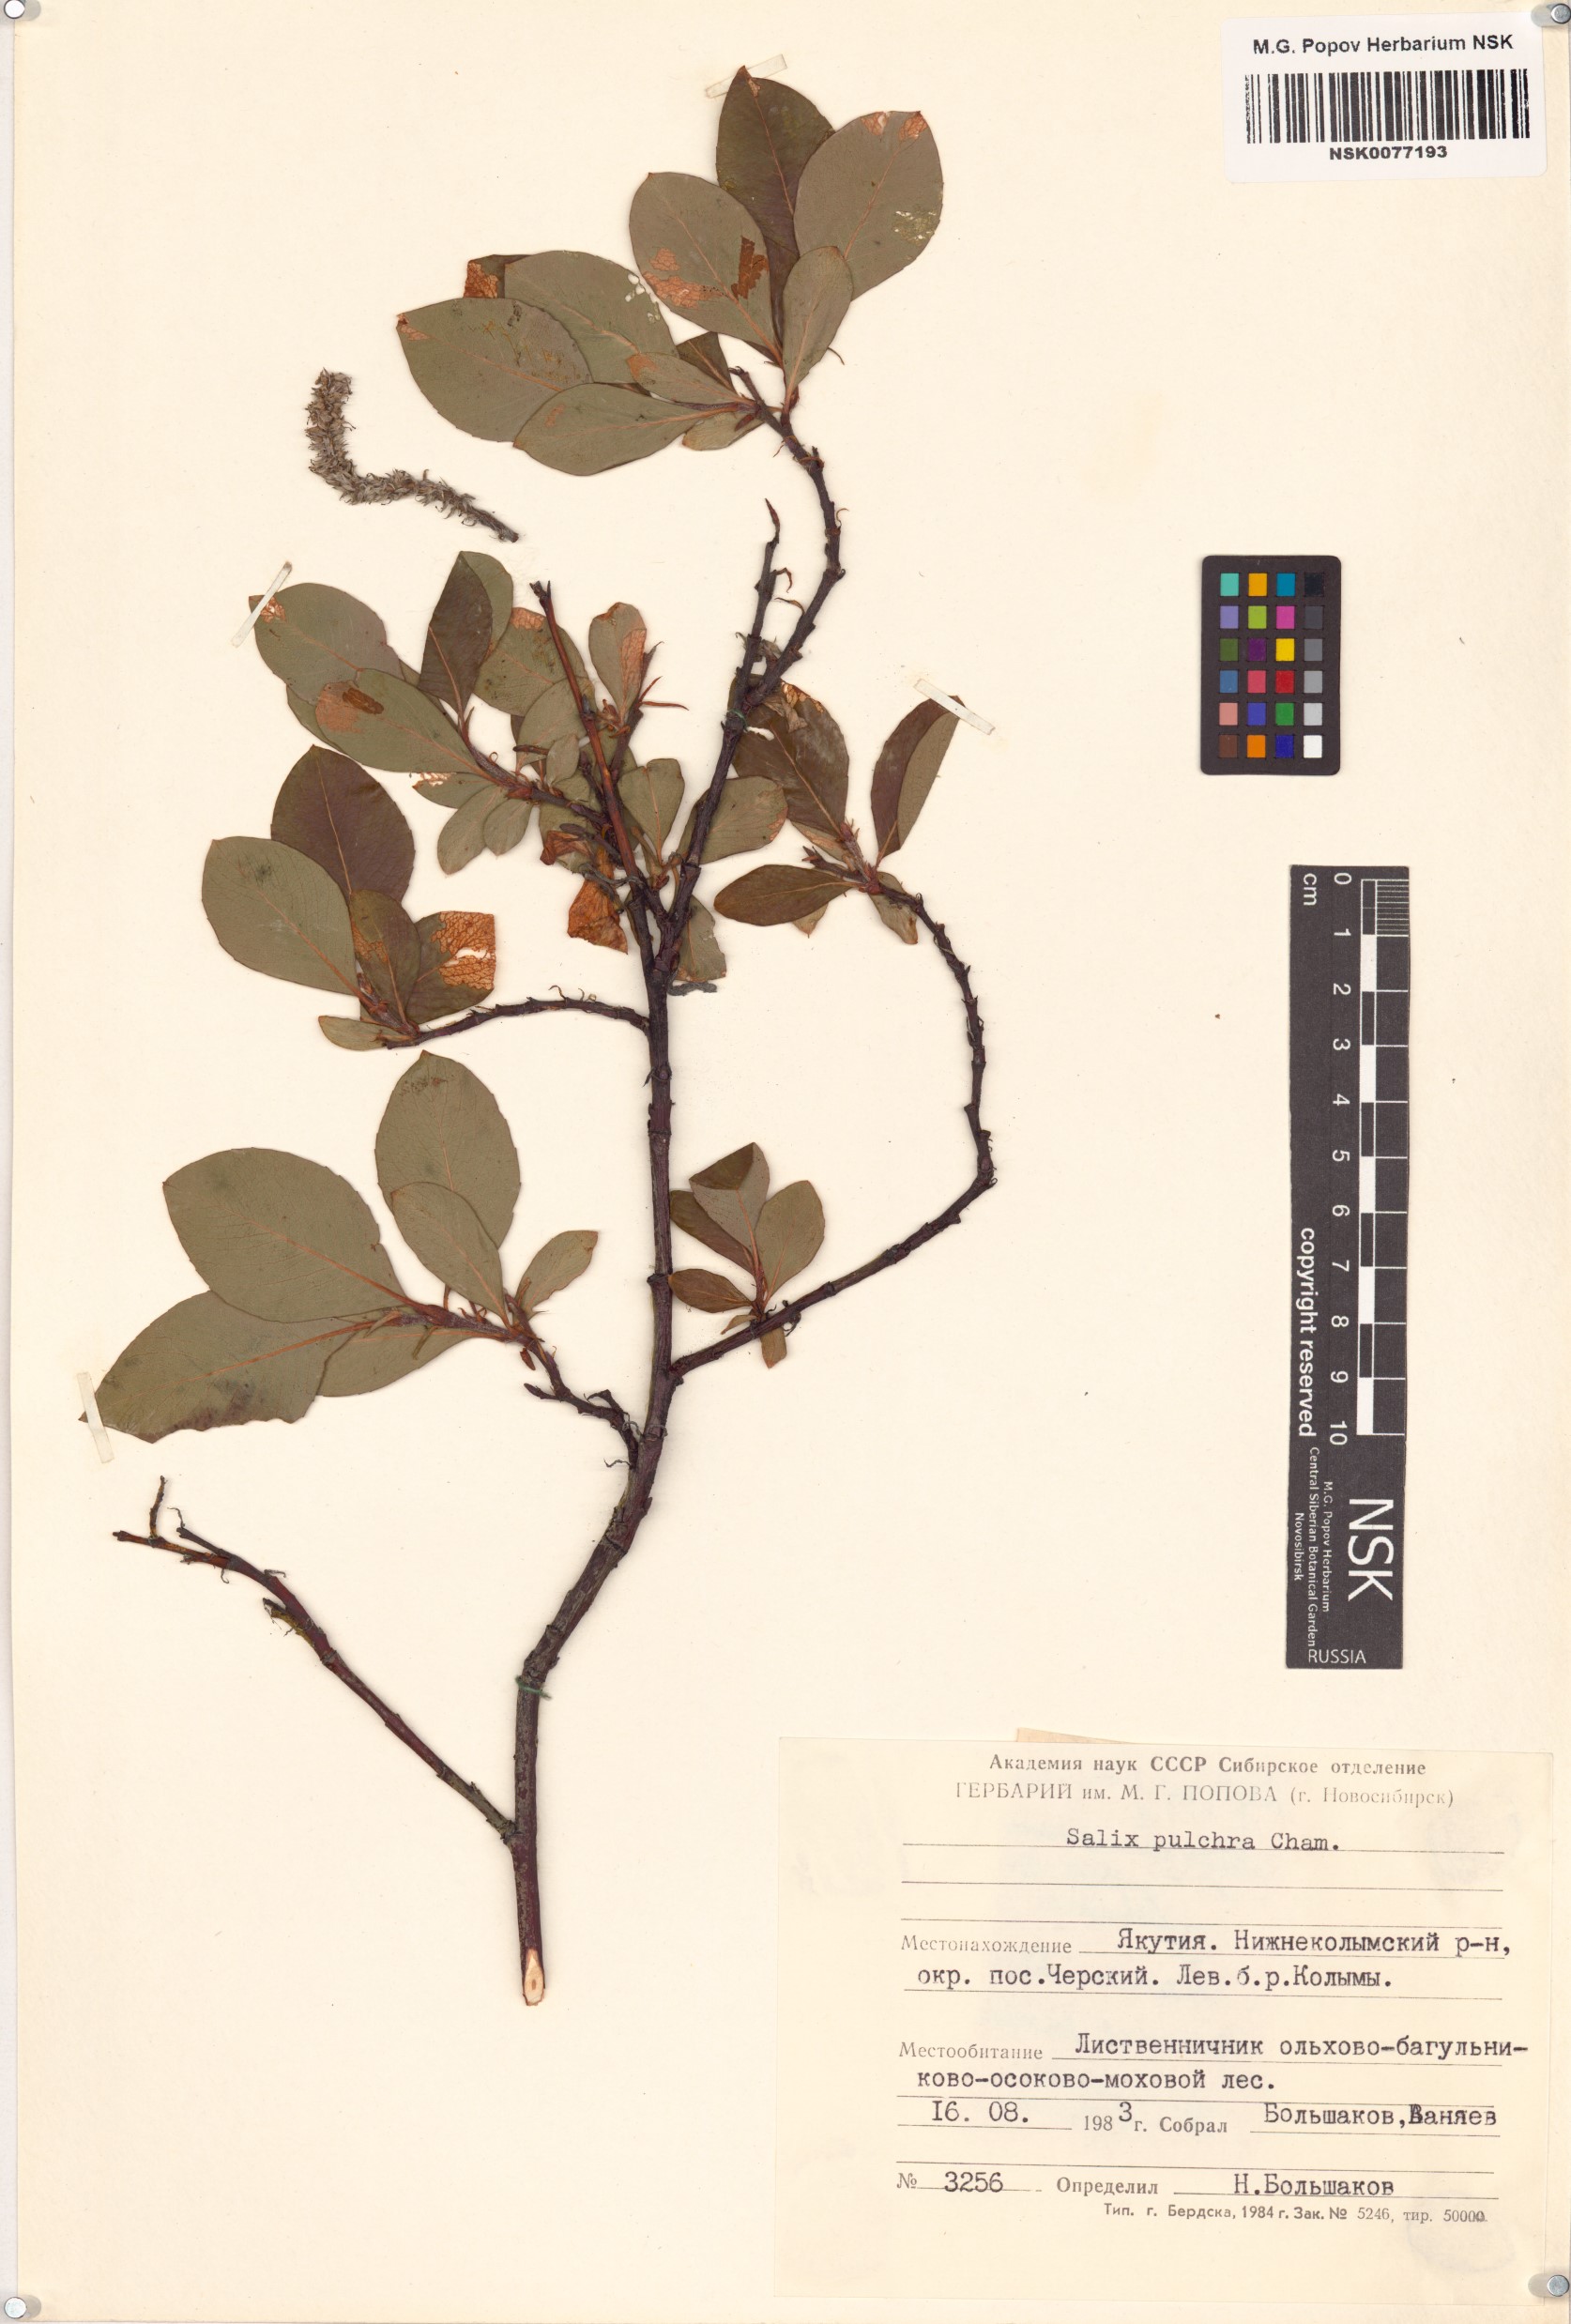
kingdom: Plantae
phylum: Tracheophyta
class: Magnoliopsida
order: Malpighiales
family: Salicaceae
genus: Salix
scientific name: Salix pulchra
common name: Diamond-leaved willow
